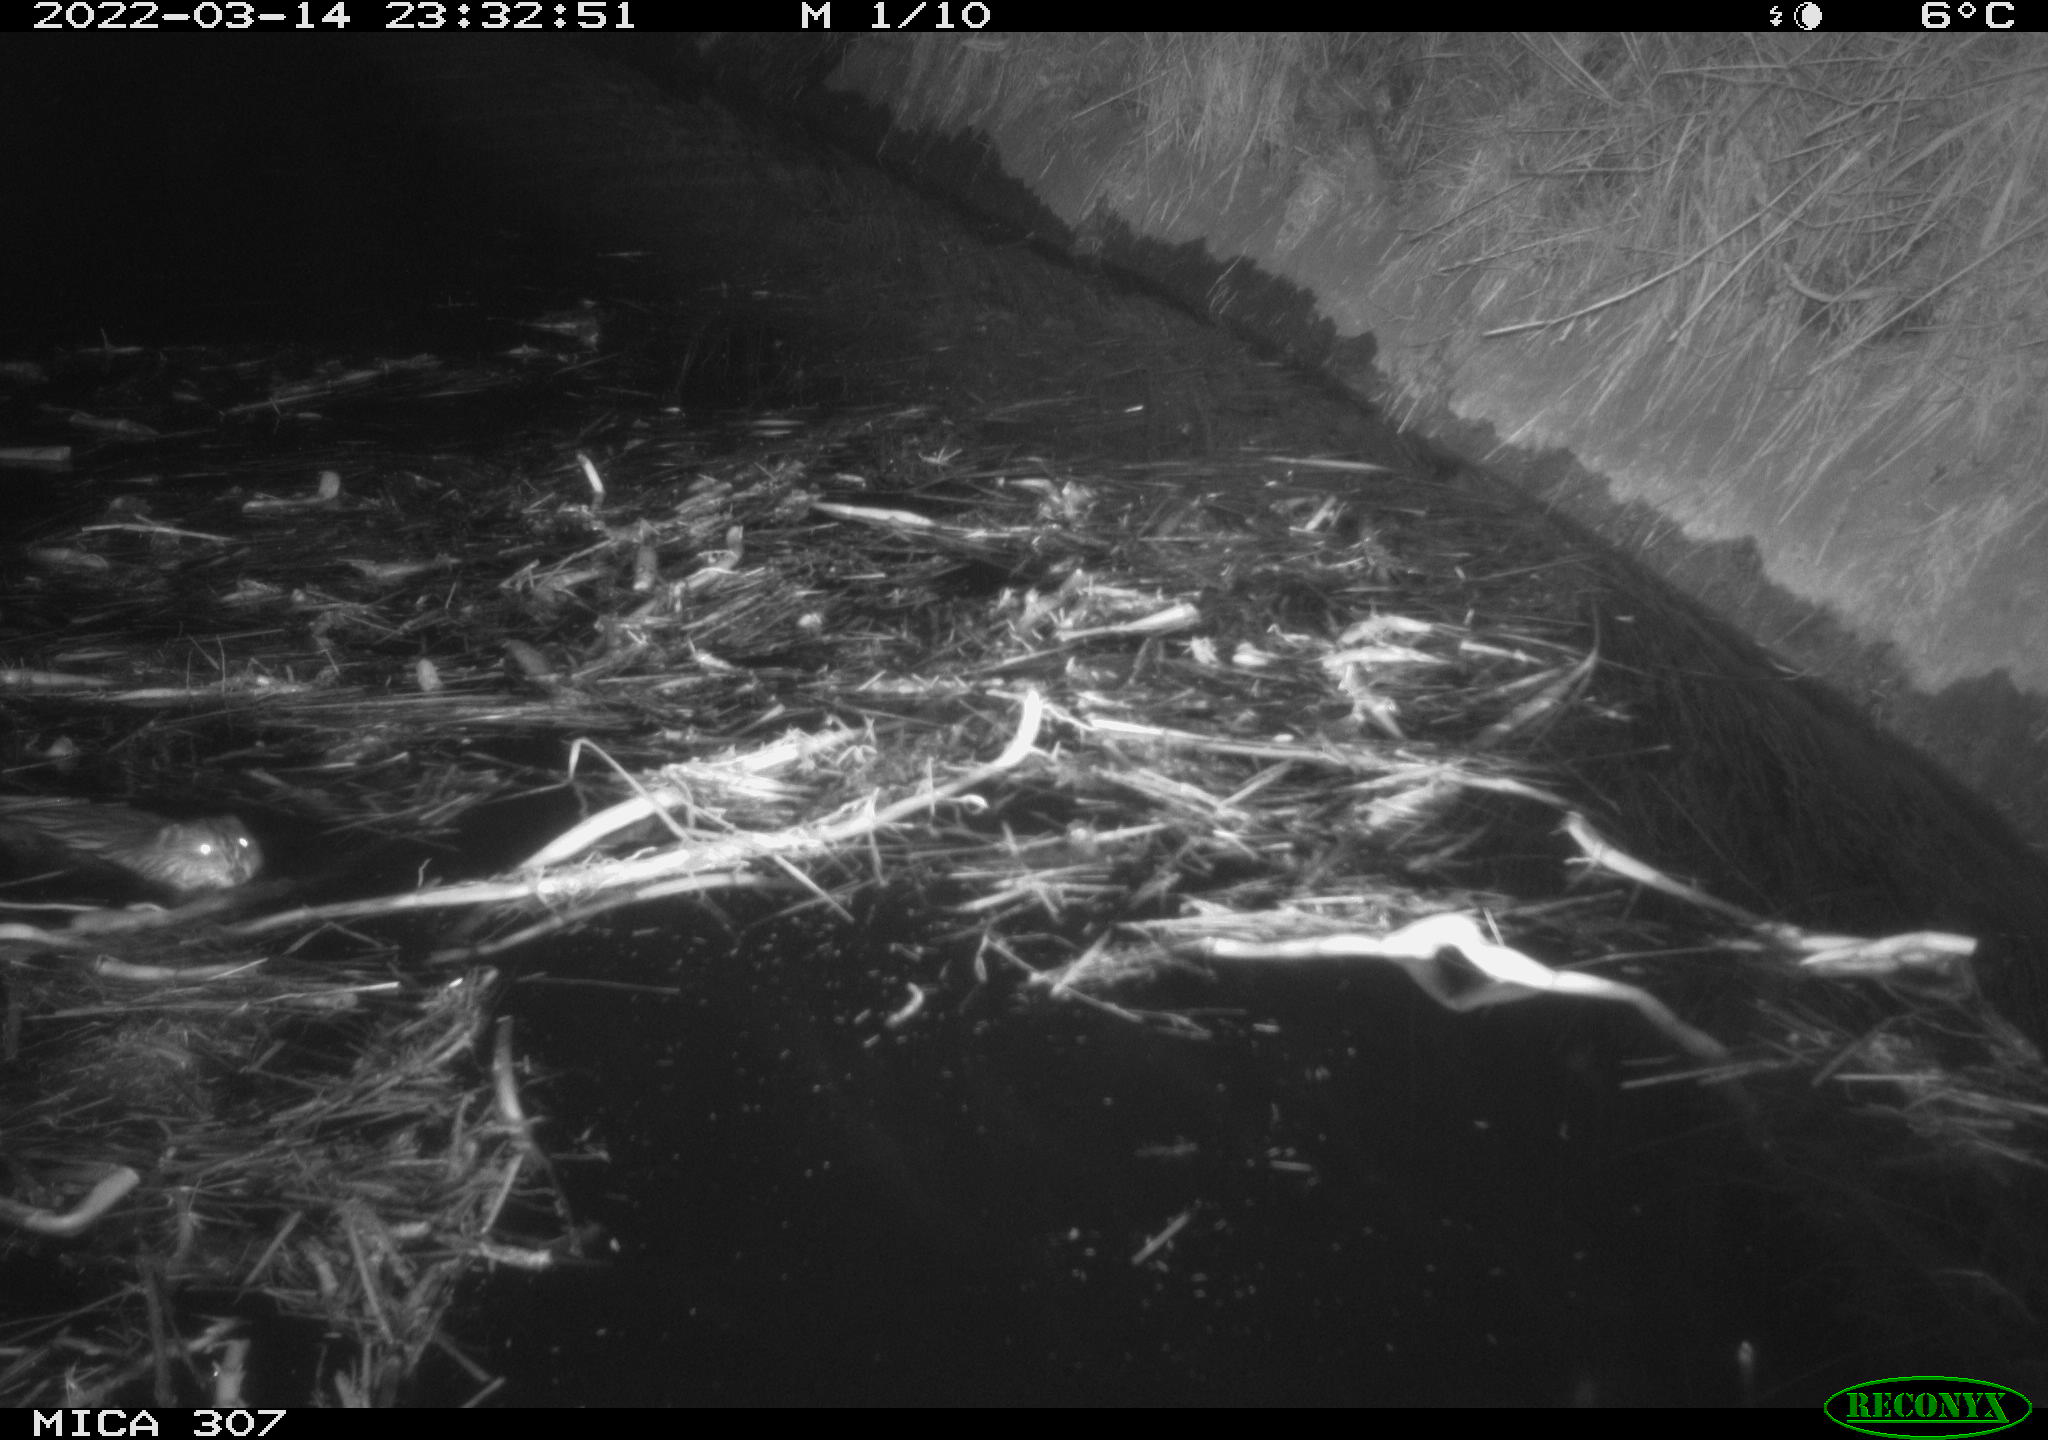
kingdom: Animalia
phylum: Chordata
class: Mammalia
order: Rodentia
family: Cricetidae
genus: Ondatra
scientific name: Ondatra zibethicus
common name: Muskrat
